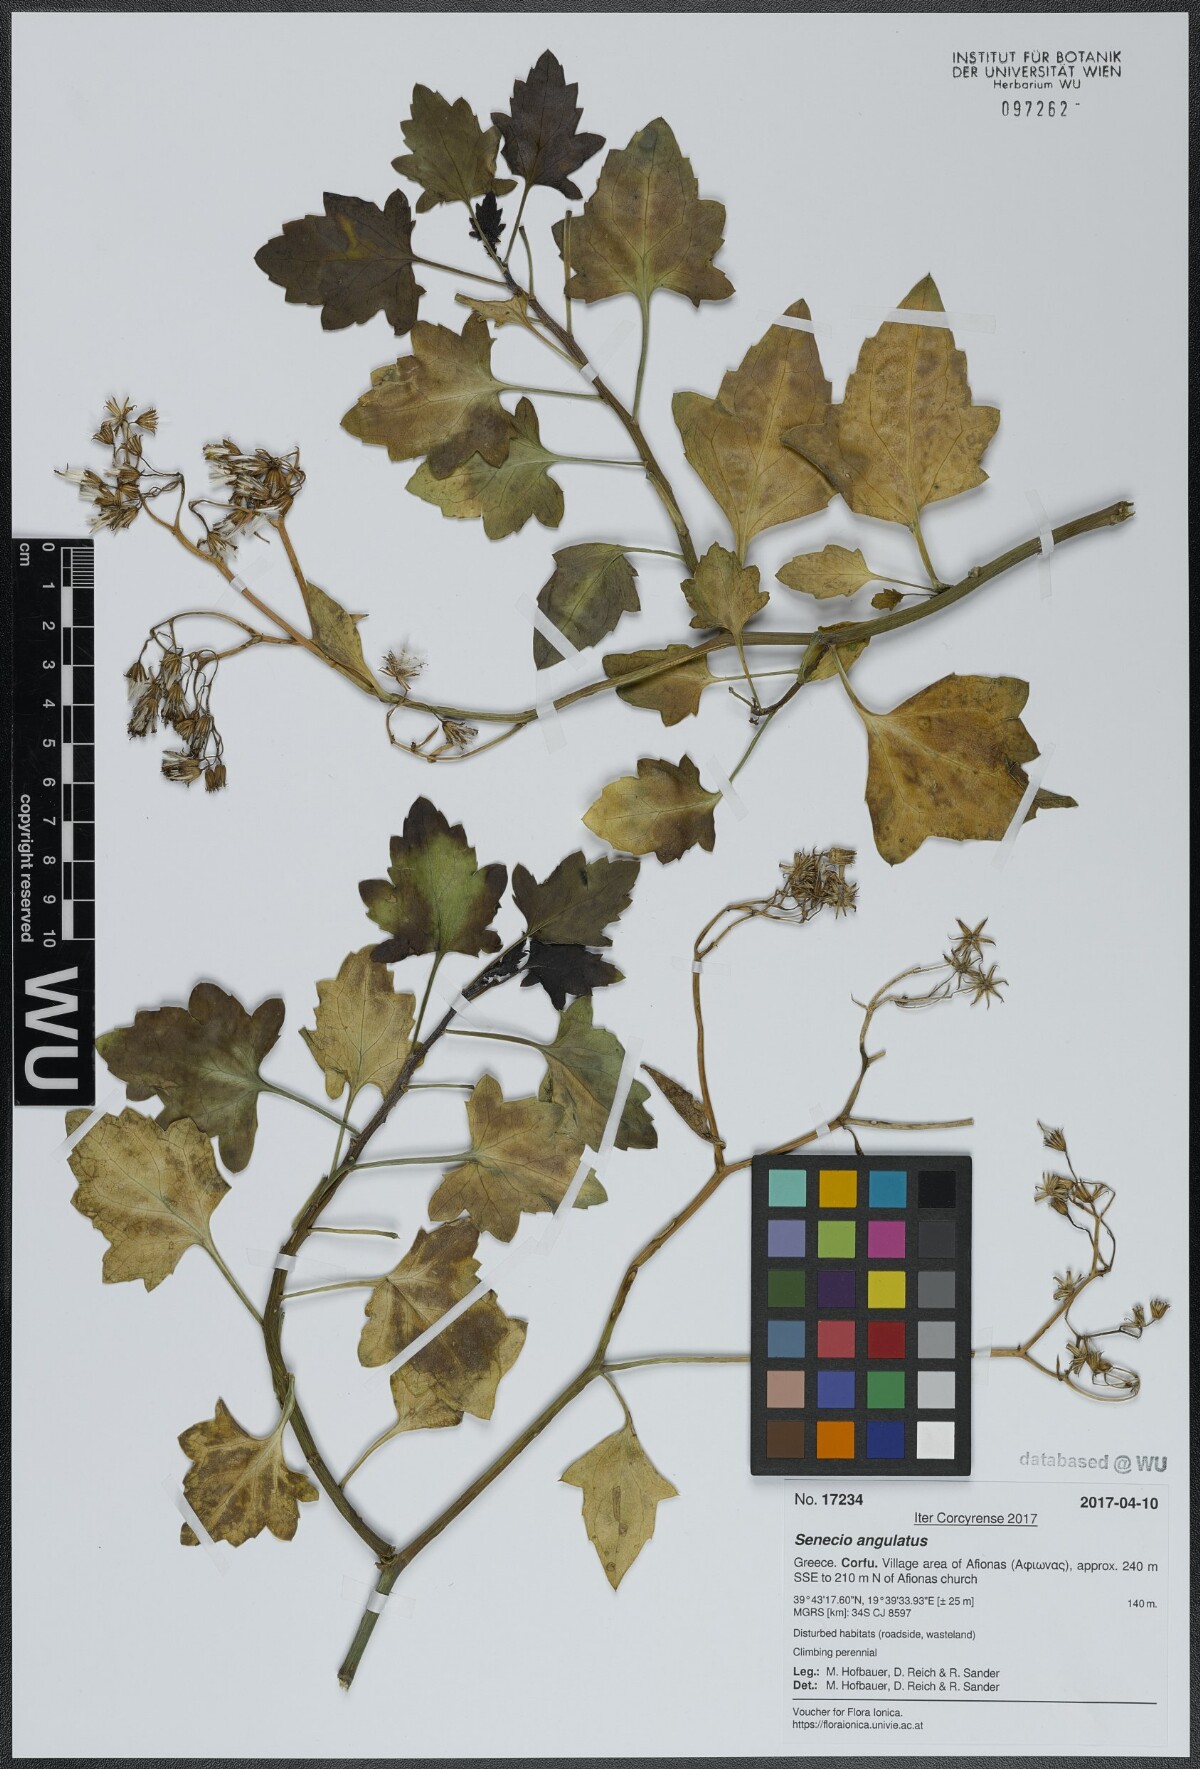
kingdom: Plantae
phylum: Tracheophyta
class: Magnoliopsida
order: Asterales
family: Asteraceae
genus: Senecio
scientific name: Senecio angulatus
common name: Climbing groundsel
